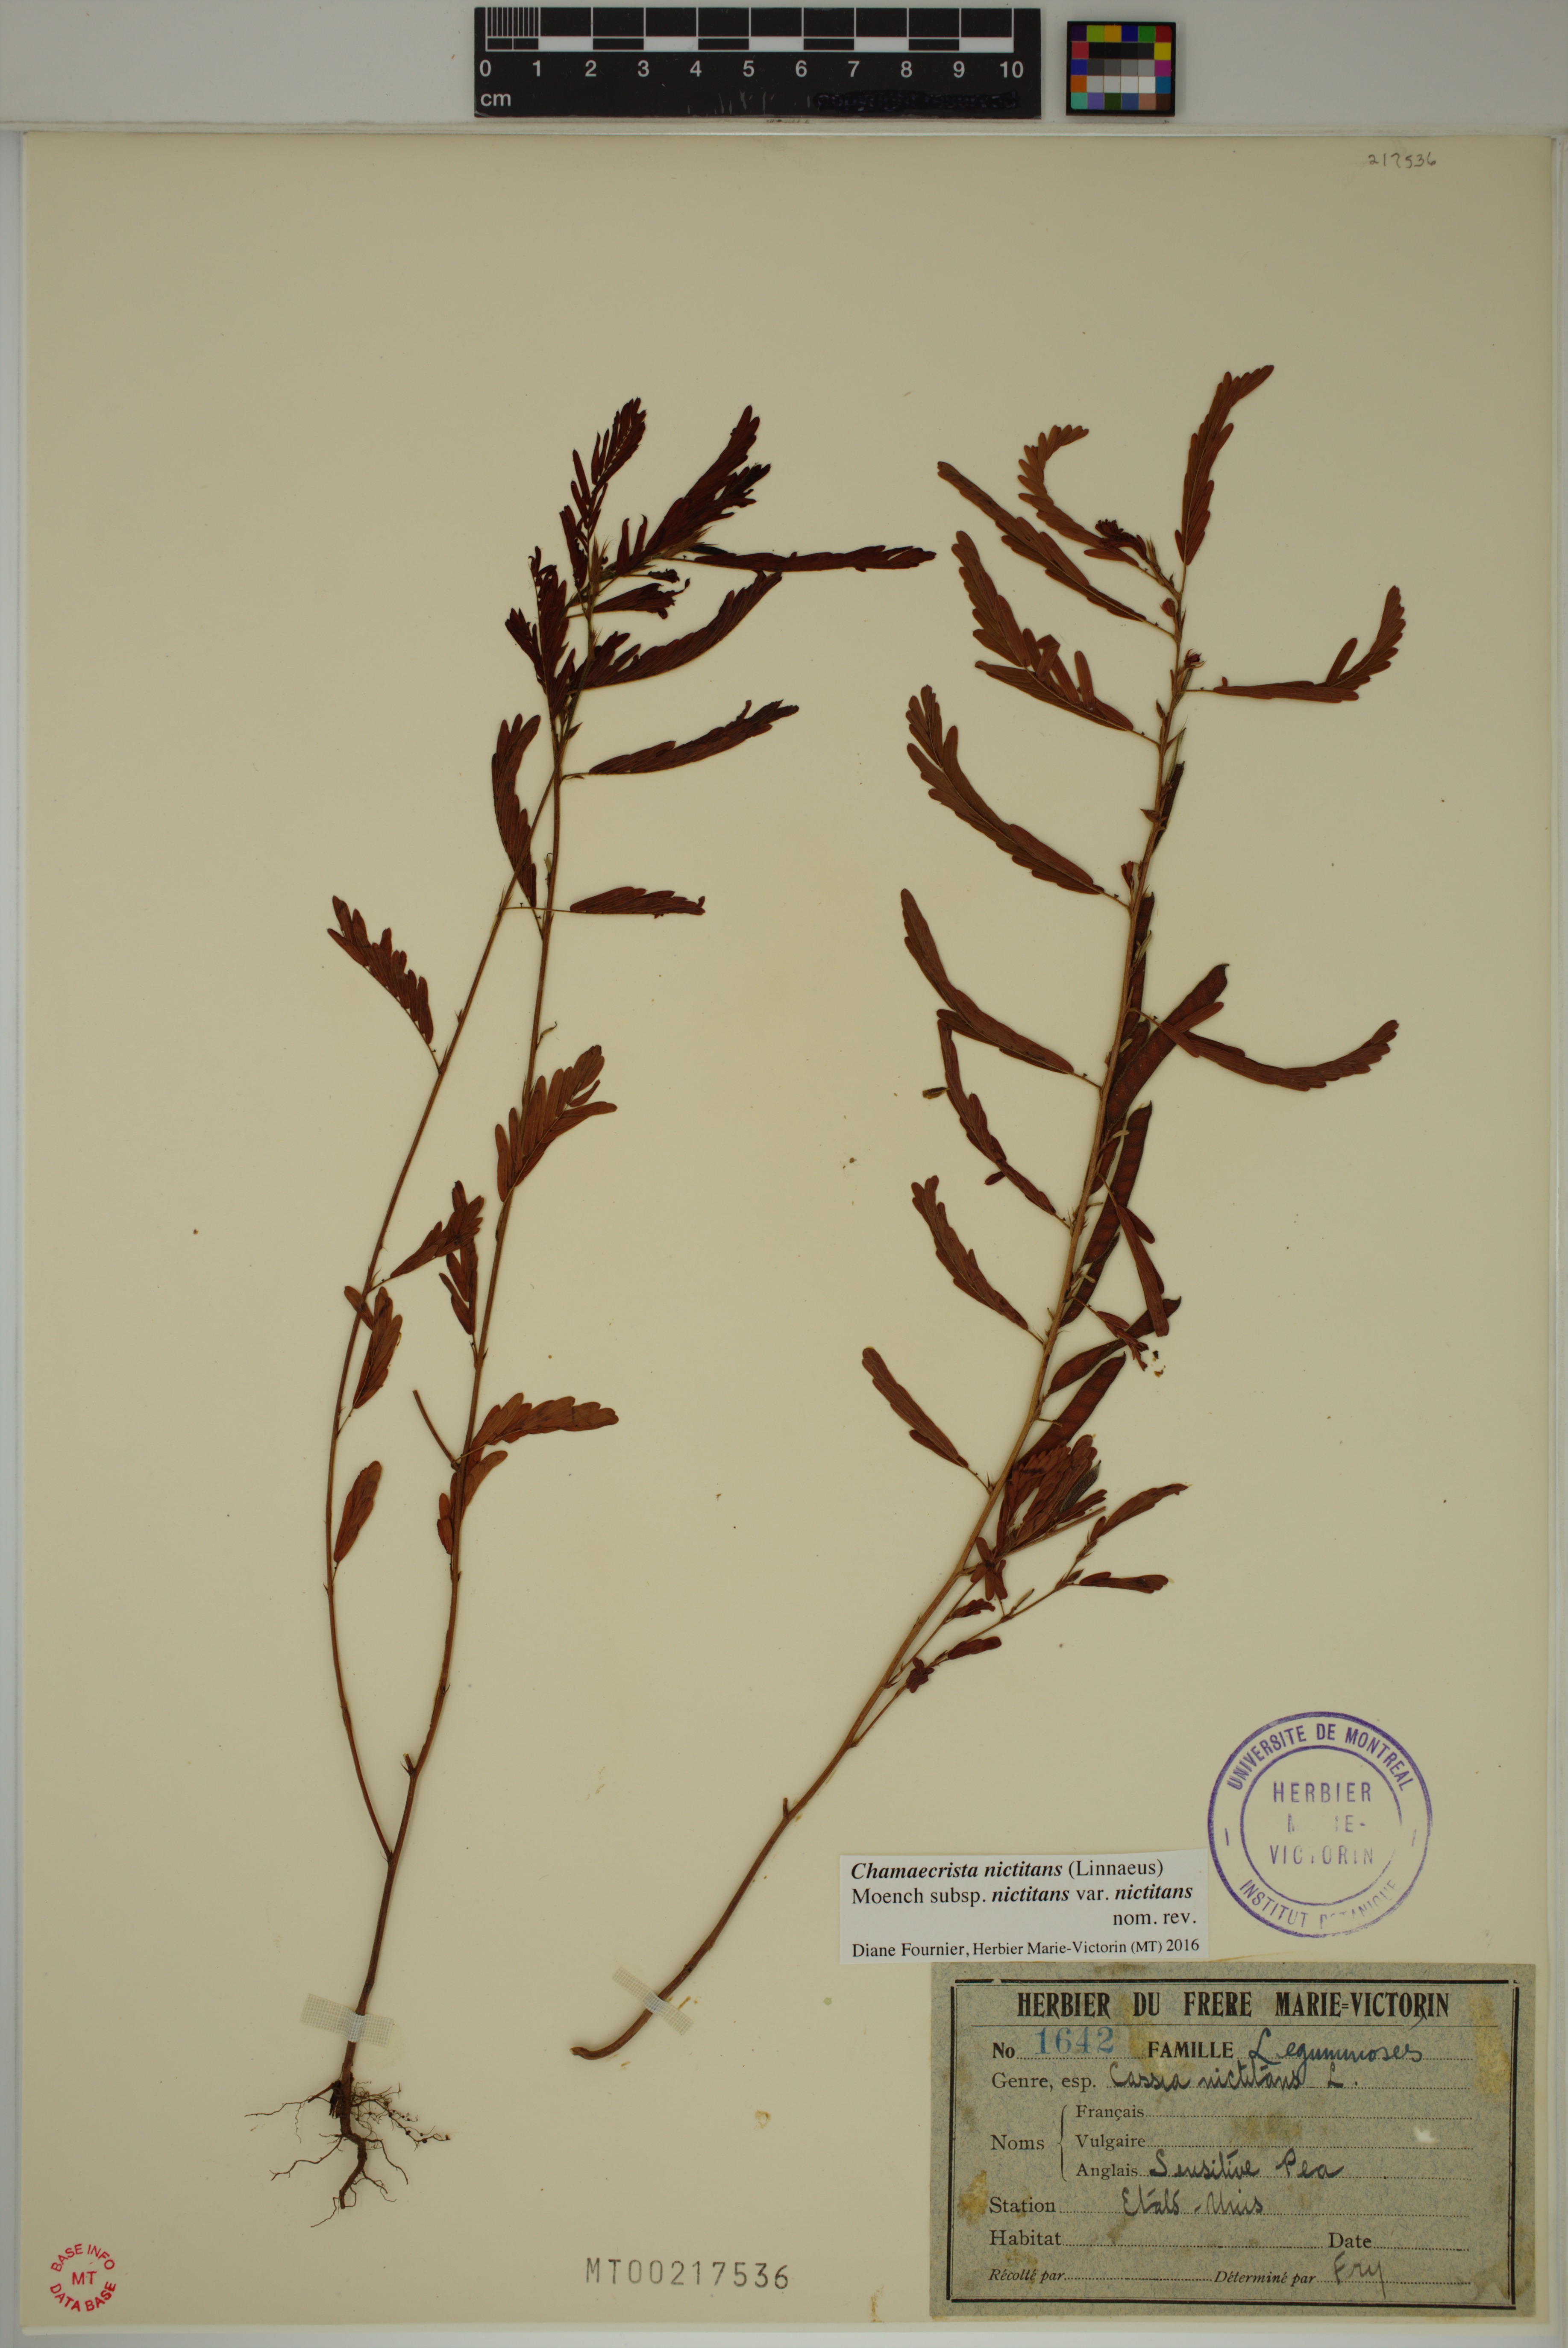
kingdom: Plantae
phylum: Tracheophyta
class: Magnoliopsida
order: Fabales
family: Fabaceae
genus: Chamaecrista
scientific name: Chamaecrista nictitans
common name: Sensitive cassia
